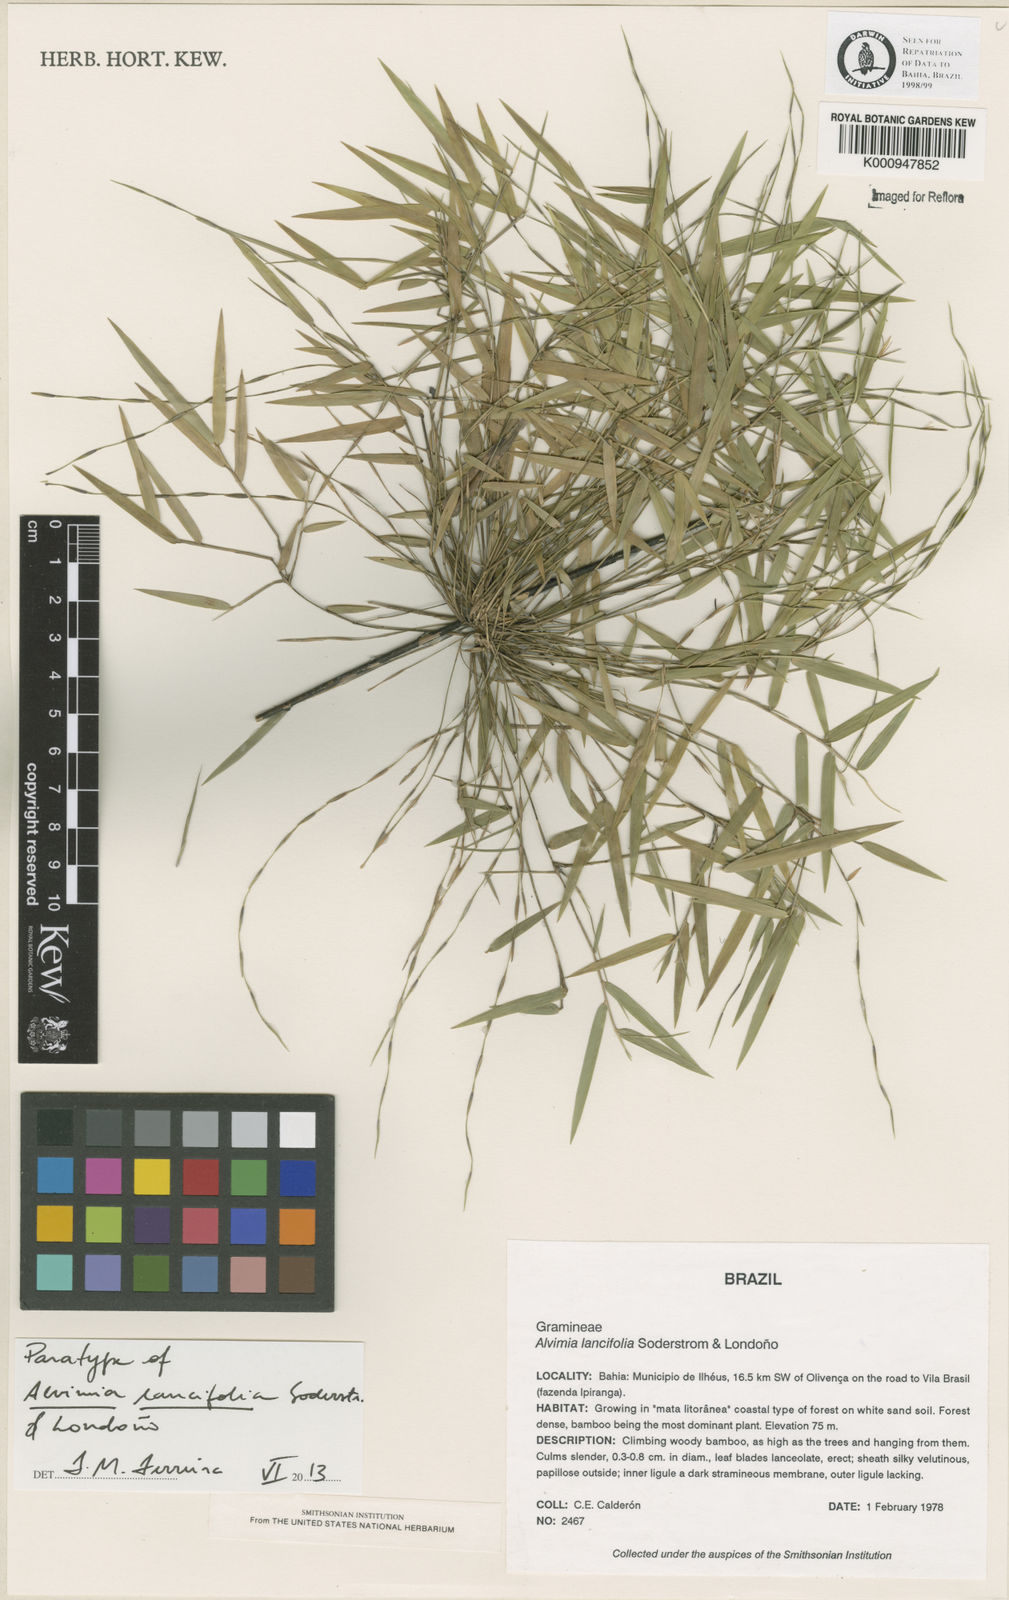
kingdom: Plantae
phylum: Tracheophyta
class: Liliopsida
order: Poales
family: Poaceae
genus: Alvimia
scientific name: Alvimia
